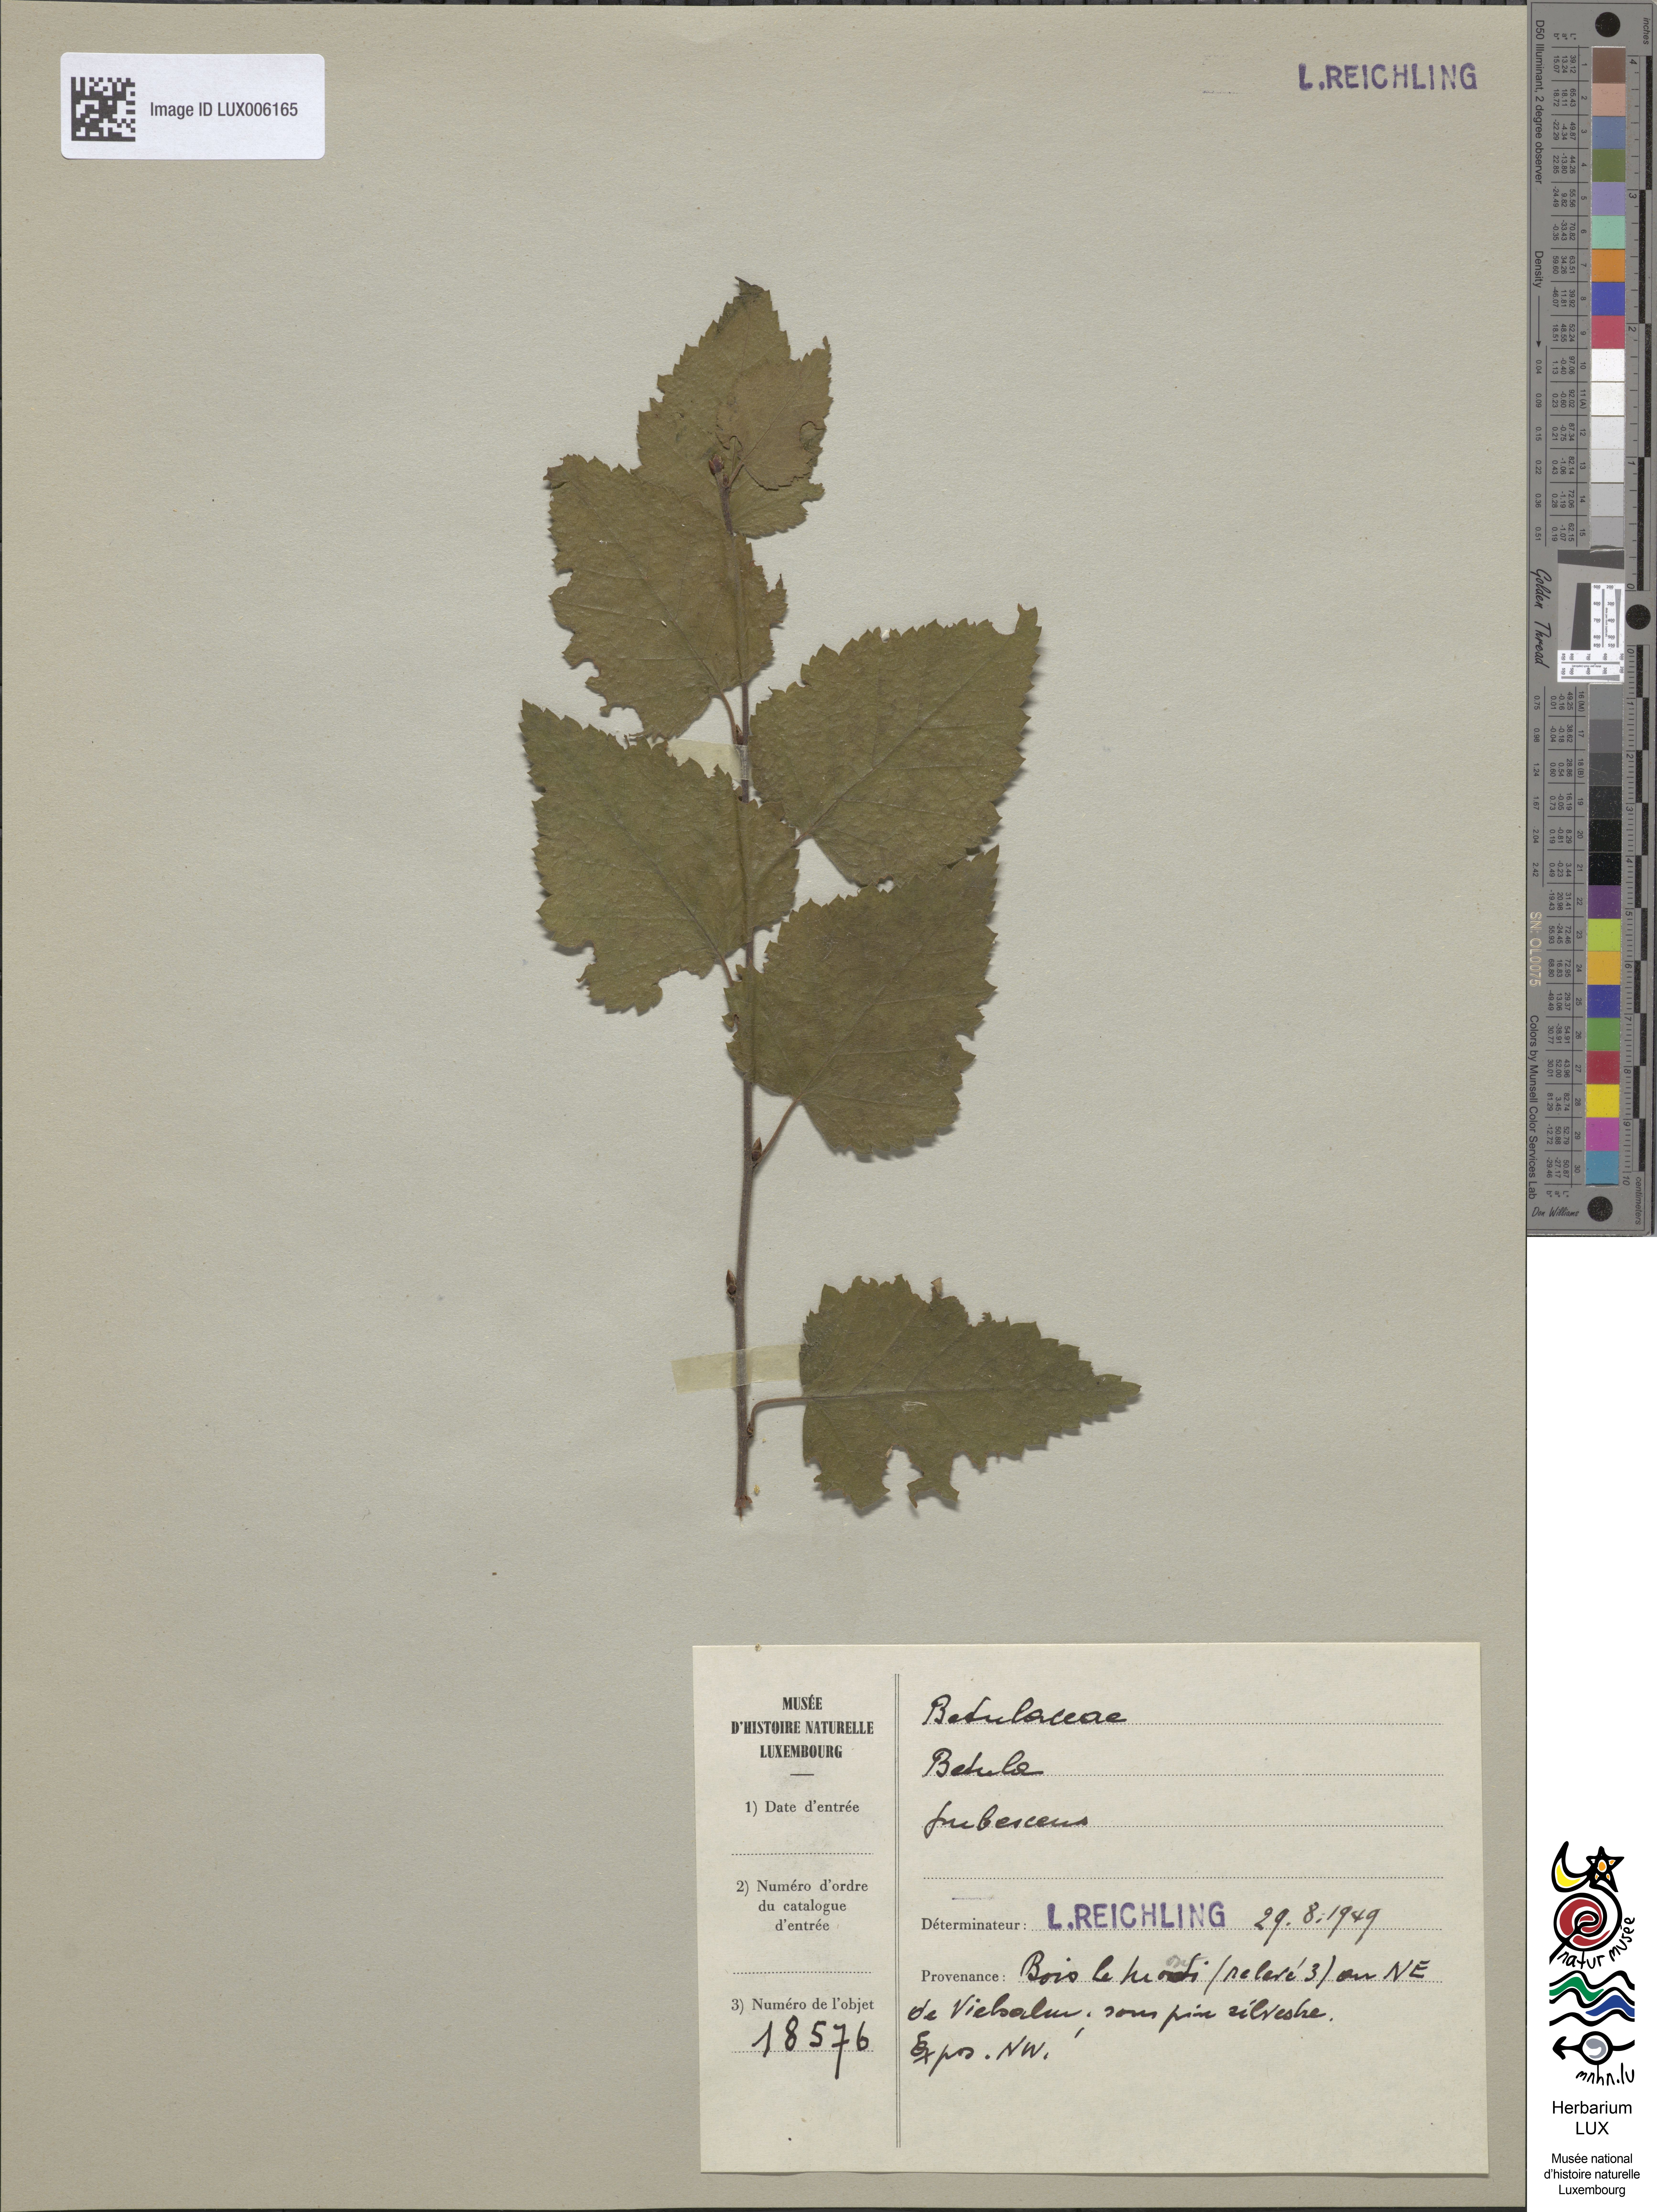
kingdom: Plantae
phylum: Tracheophyta
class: Magnoliopsida
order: Fagales
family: Betulaceae
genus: Betula
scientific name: Betula pubescens
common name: Downy birch
